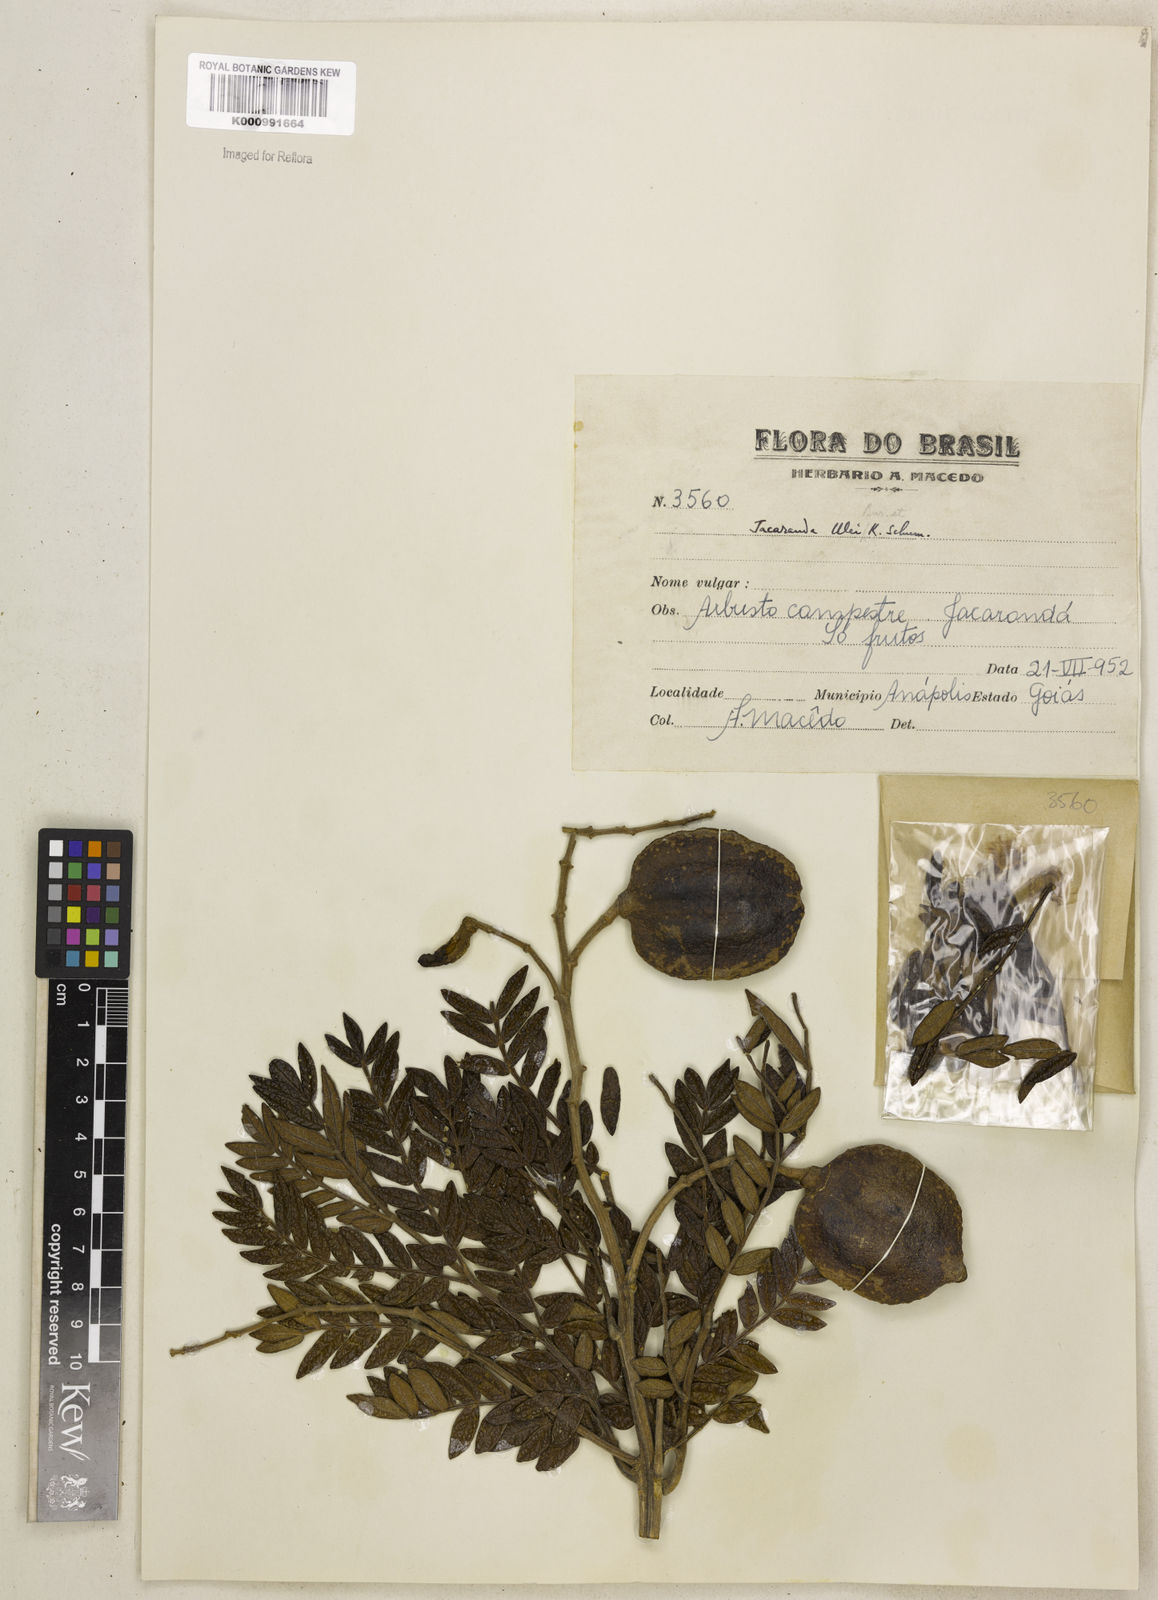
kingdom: Plantae
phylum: Tracheophyta
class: Magnoliopsida
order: Lamiales
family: Bignoniaceae
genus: Jacaranda
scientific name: Jacaranda obtusifolia
